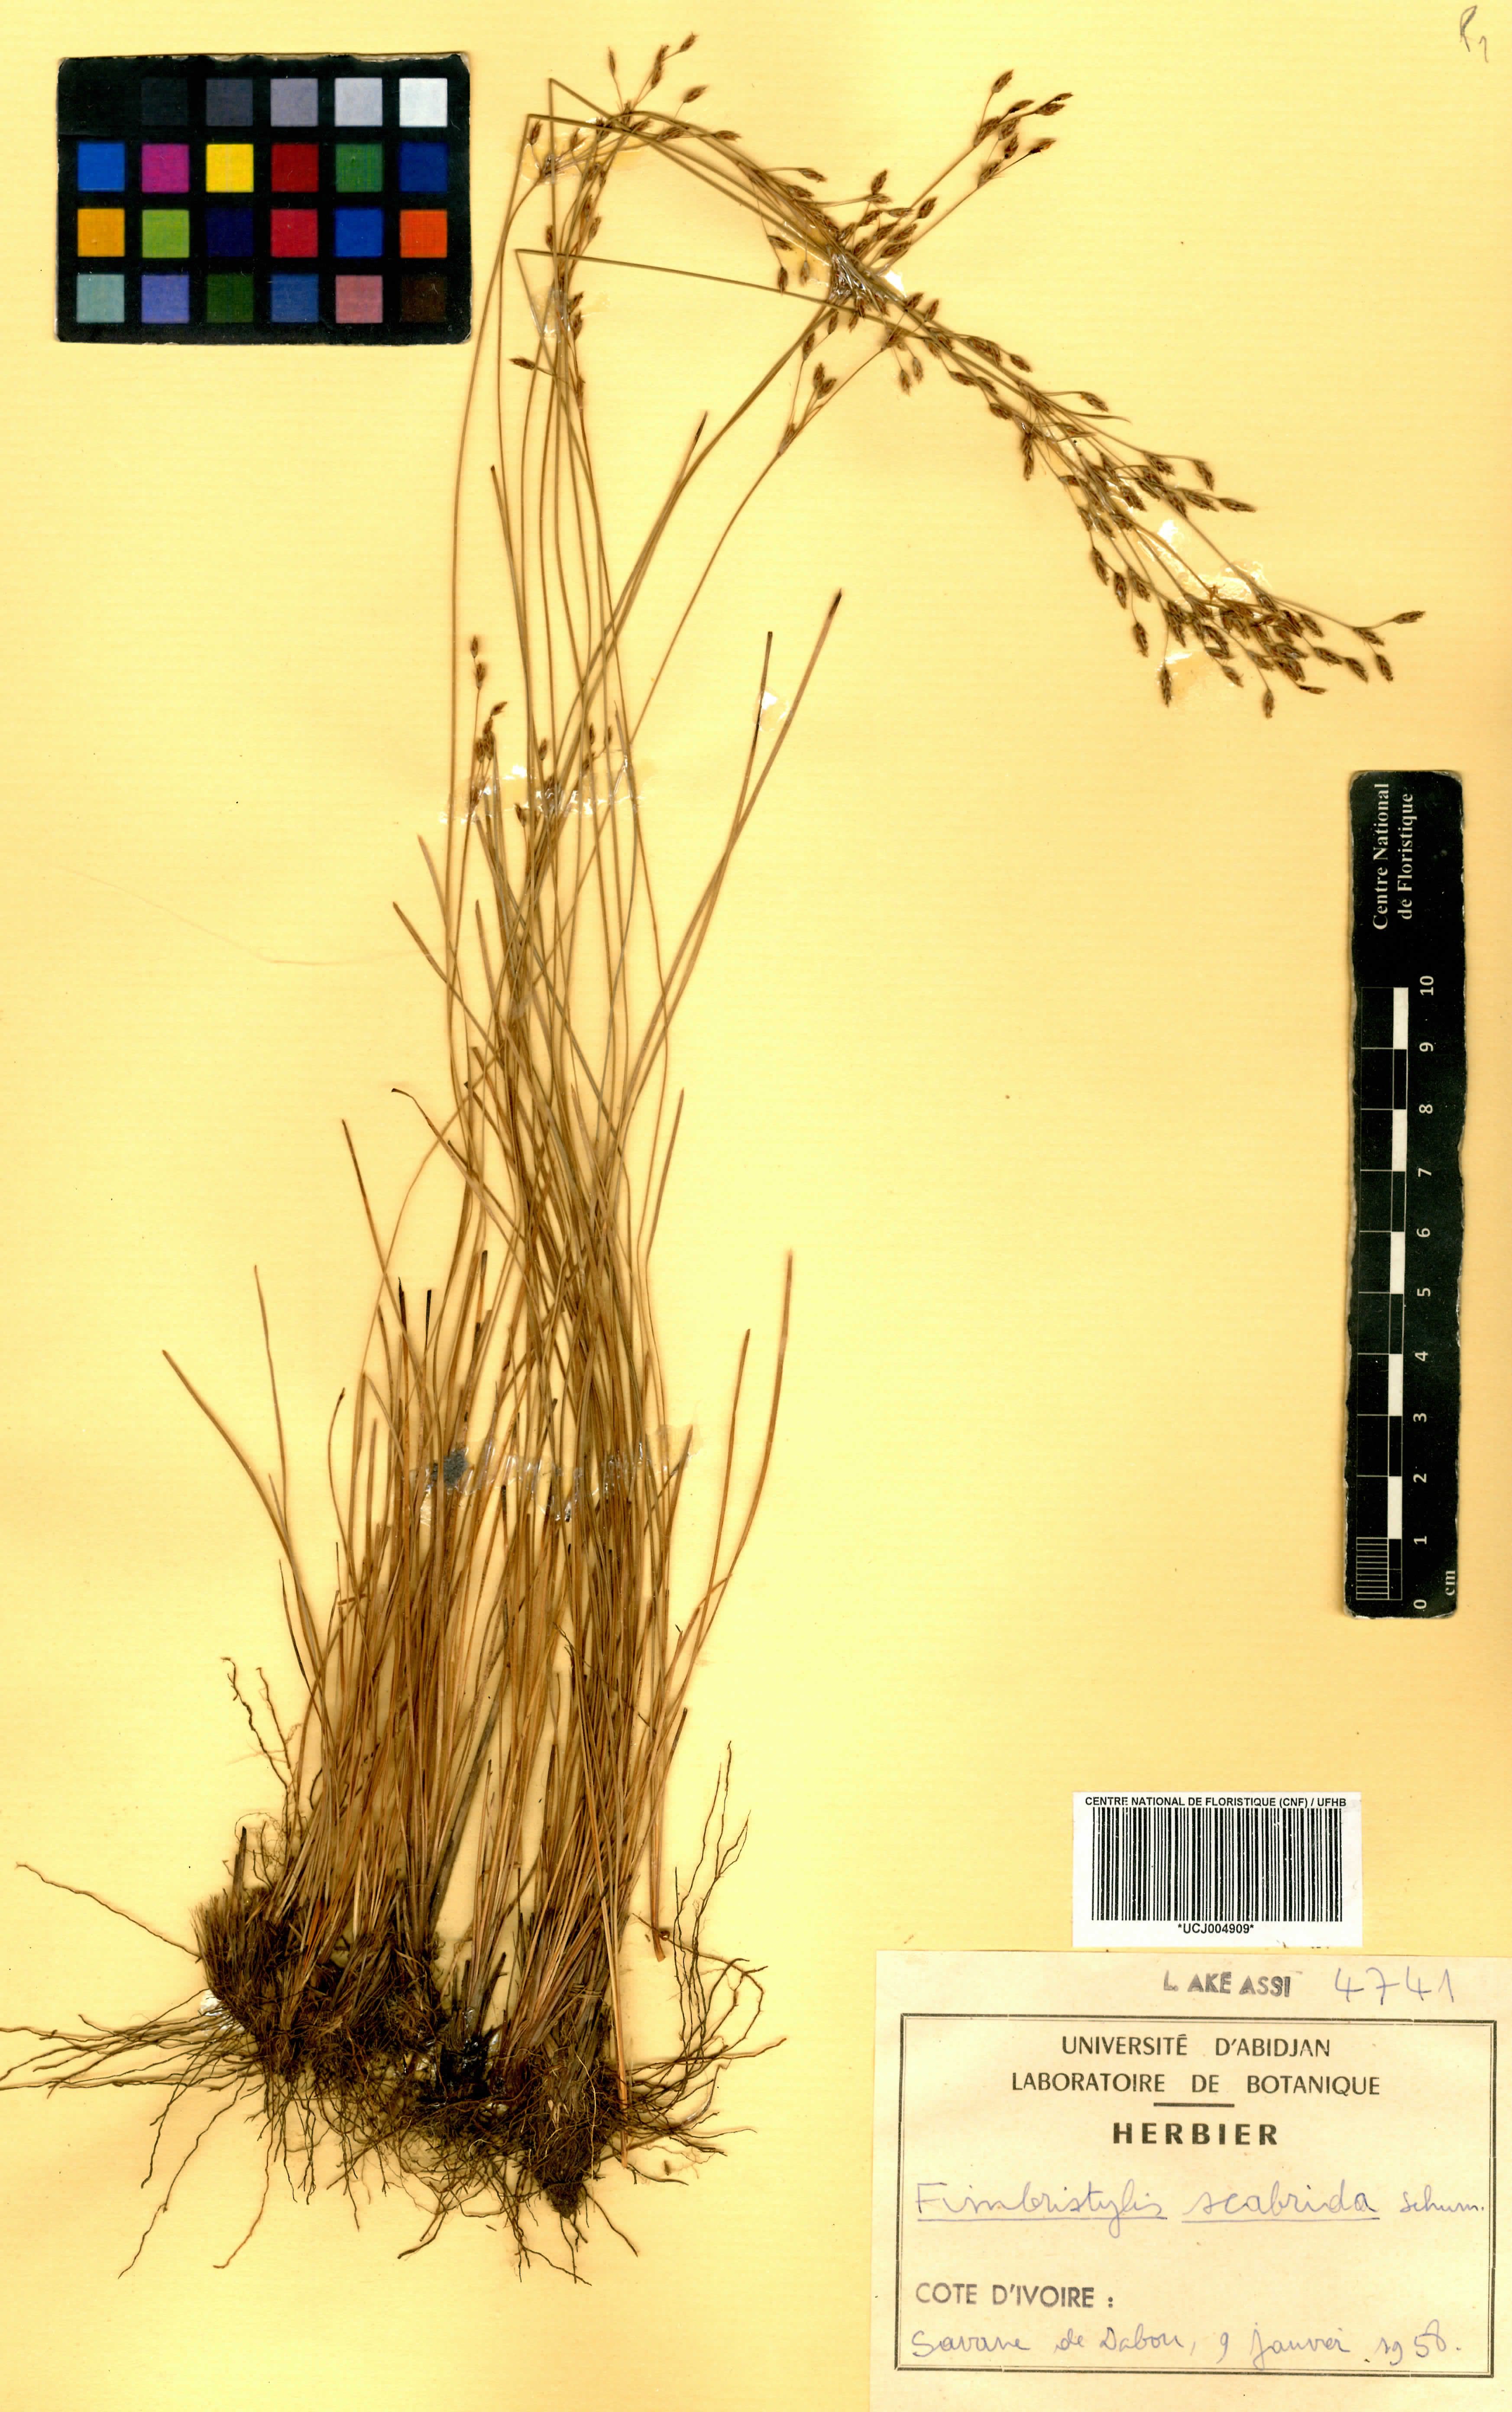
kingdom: Plantae
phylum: Tracheophyta
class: Liliopsida
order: Poales
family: Cyperaceae
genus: Fimbristylis
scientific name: Fimbristylis scabrida
